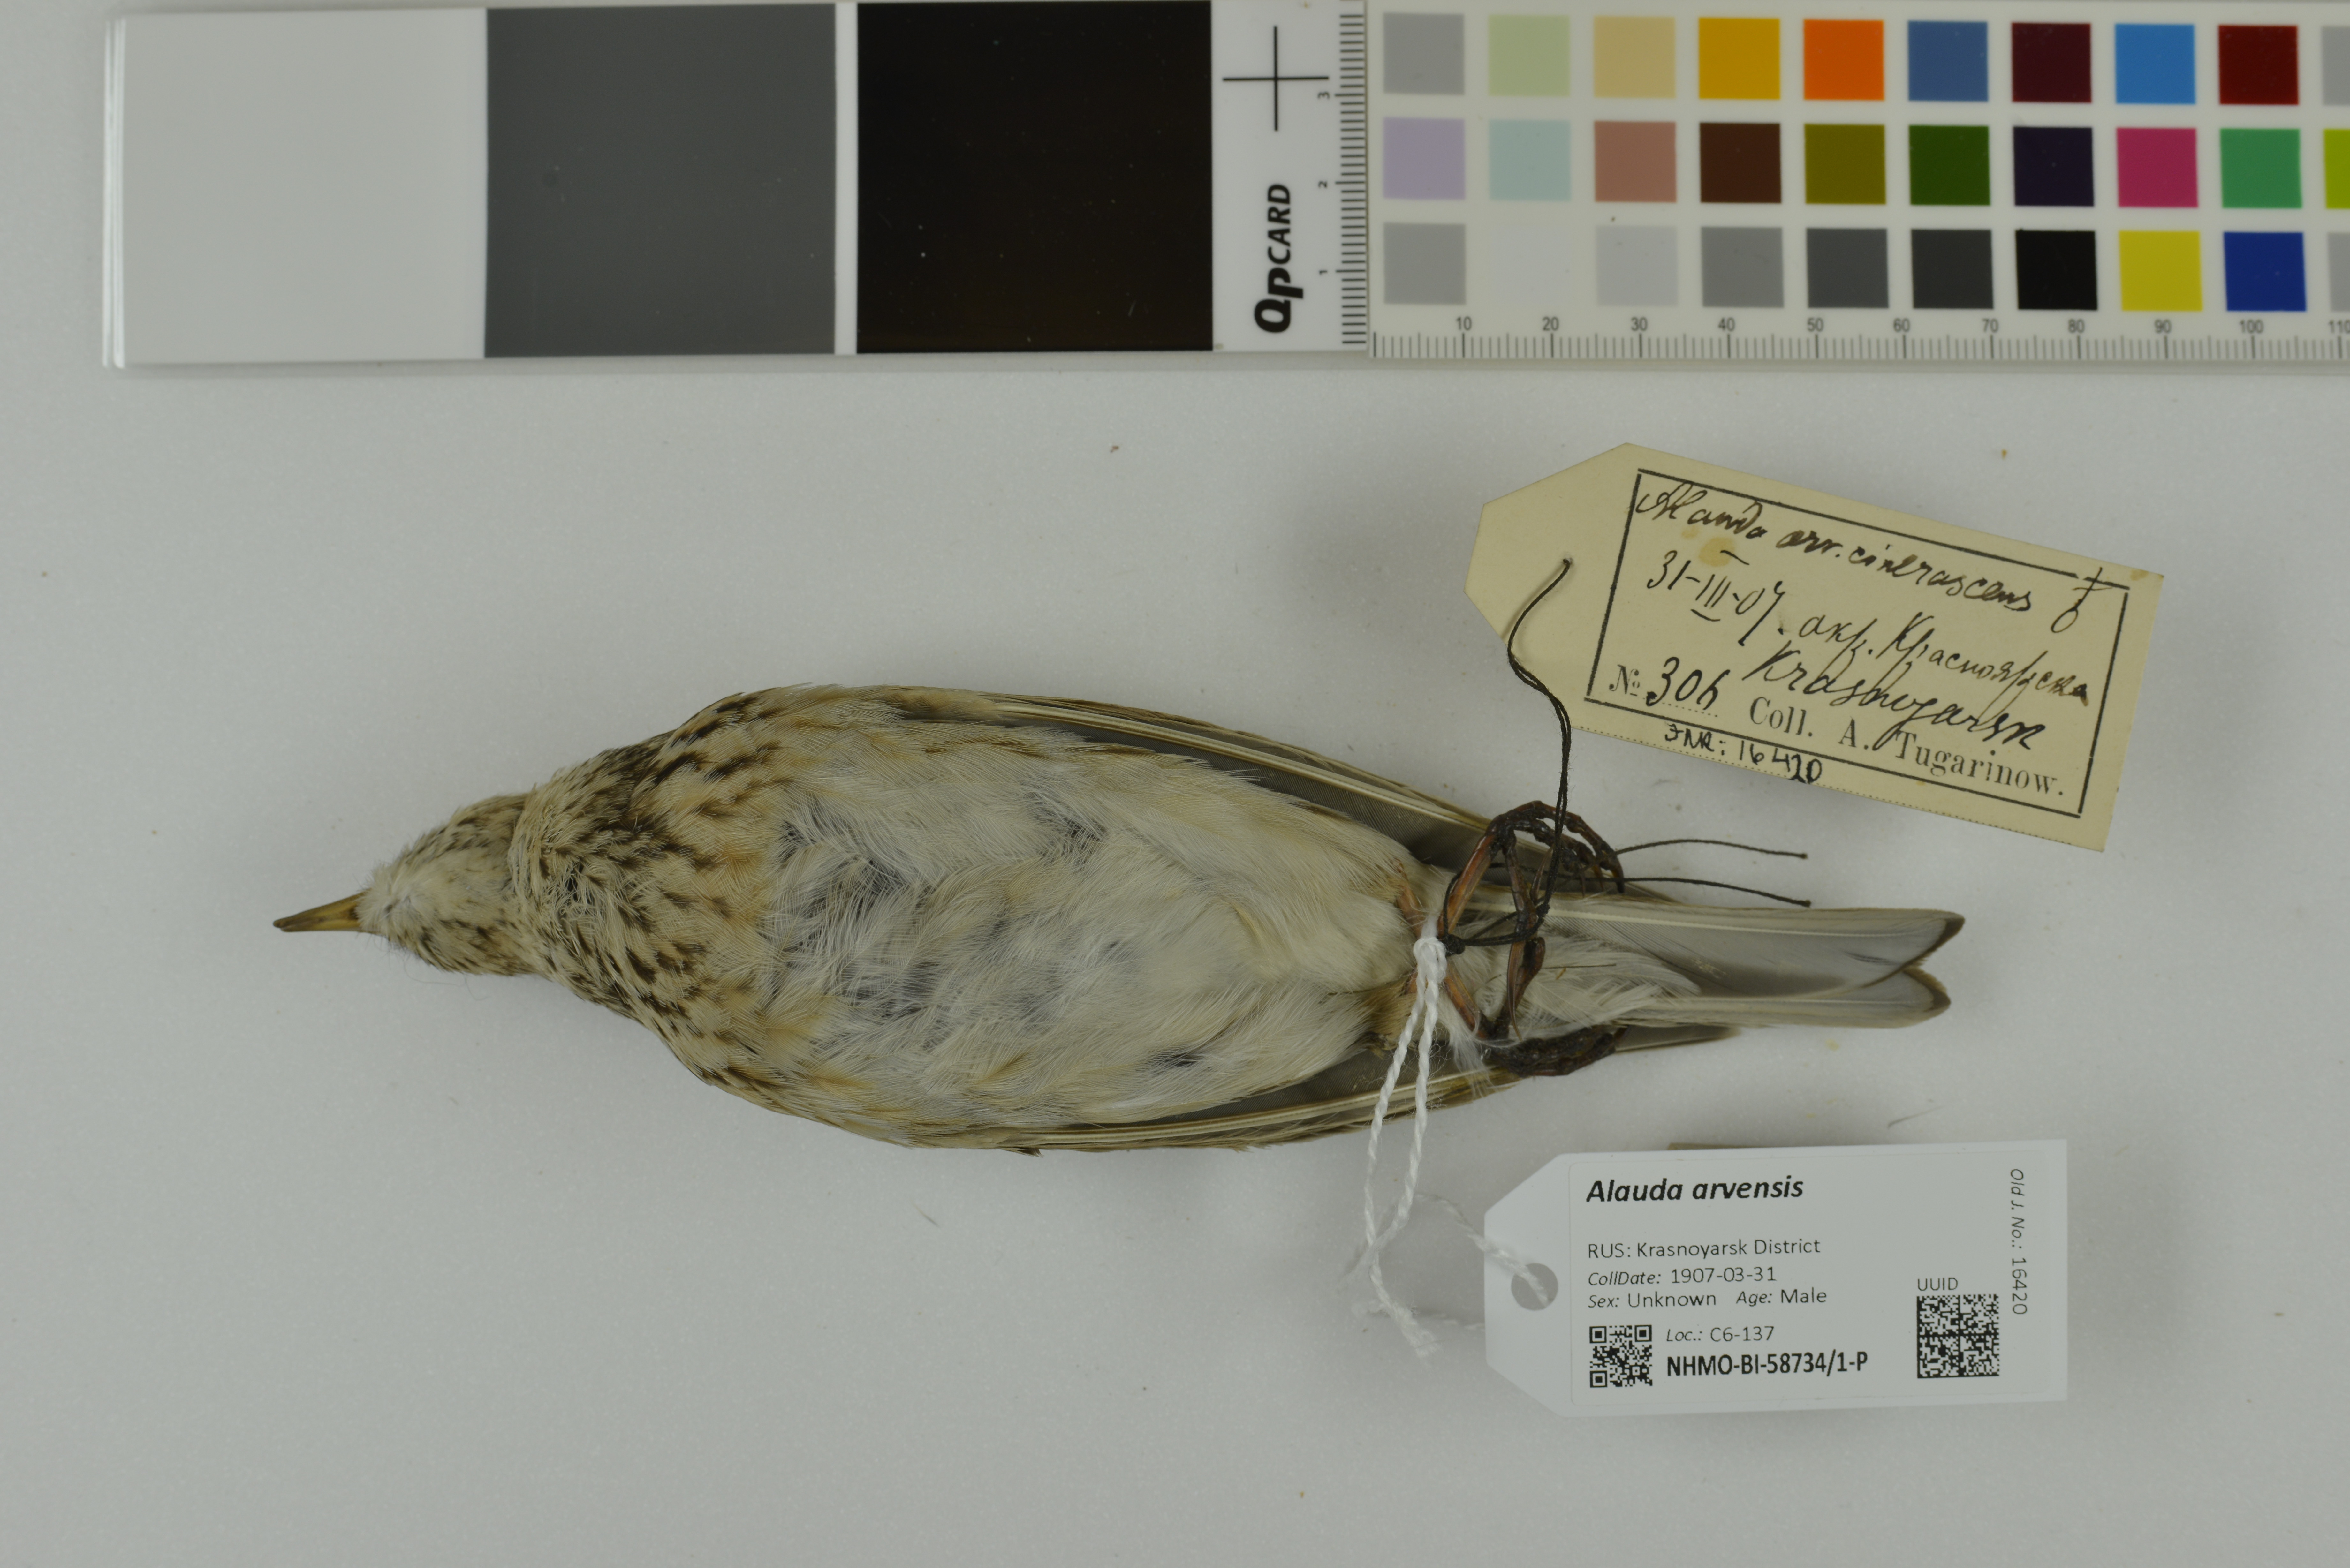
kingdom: Animalia
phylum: Chordata
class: Aves
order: Passeriformes
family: Alaudidae
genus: Alauda
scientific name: Alauda arvensis
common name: Eurasian skylark
